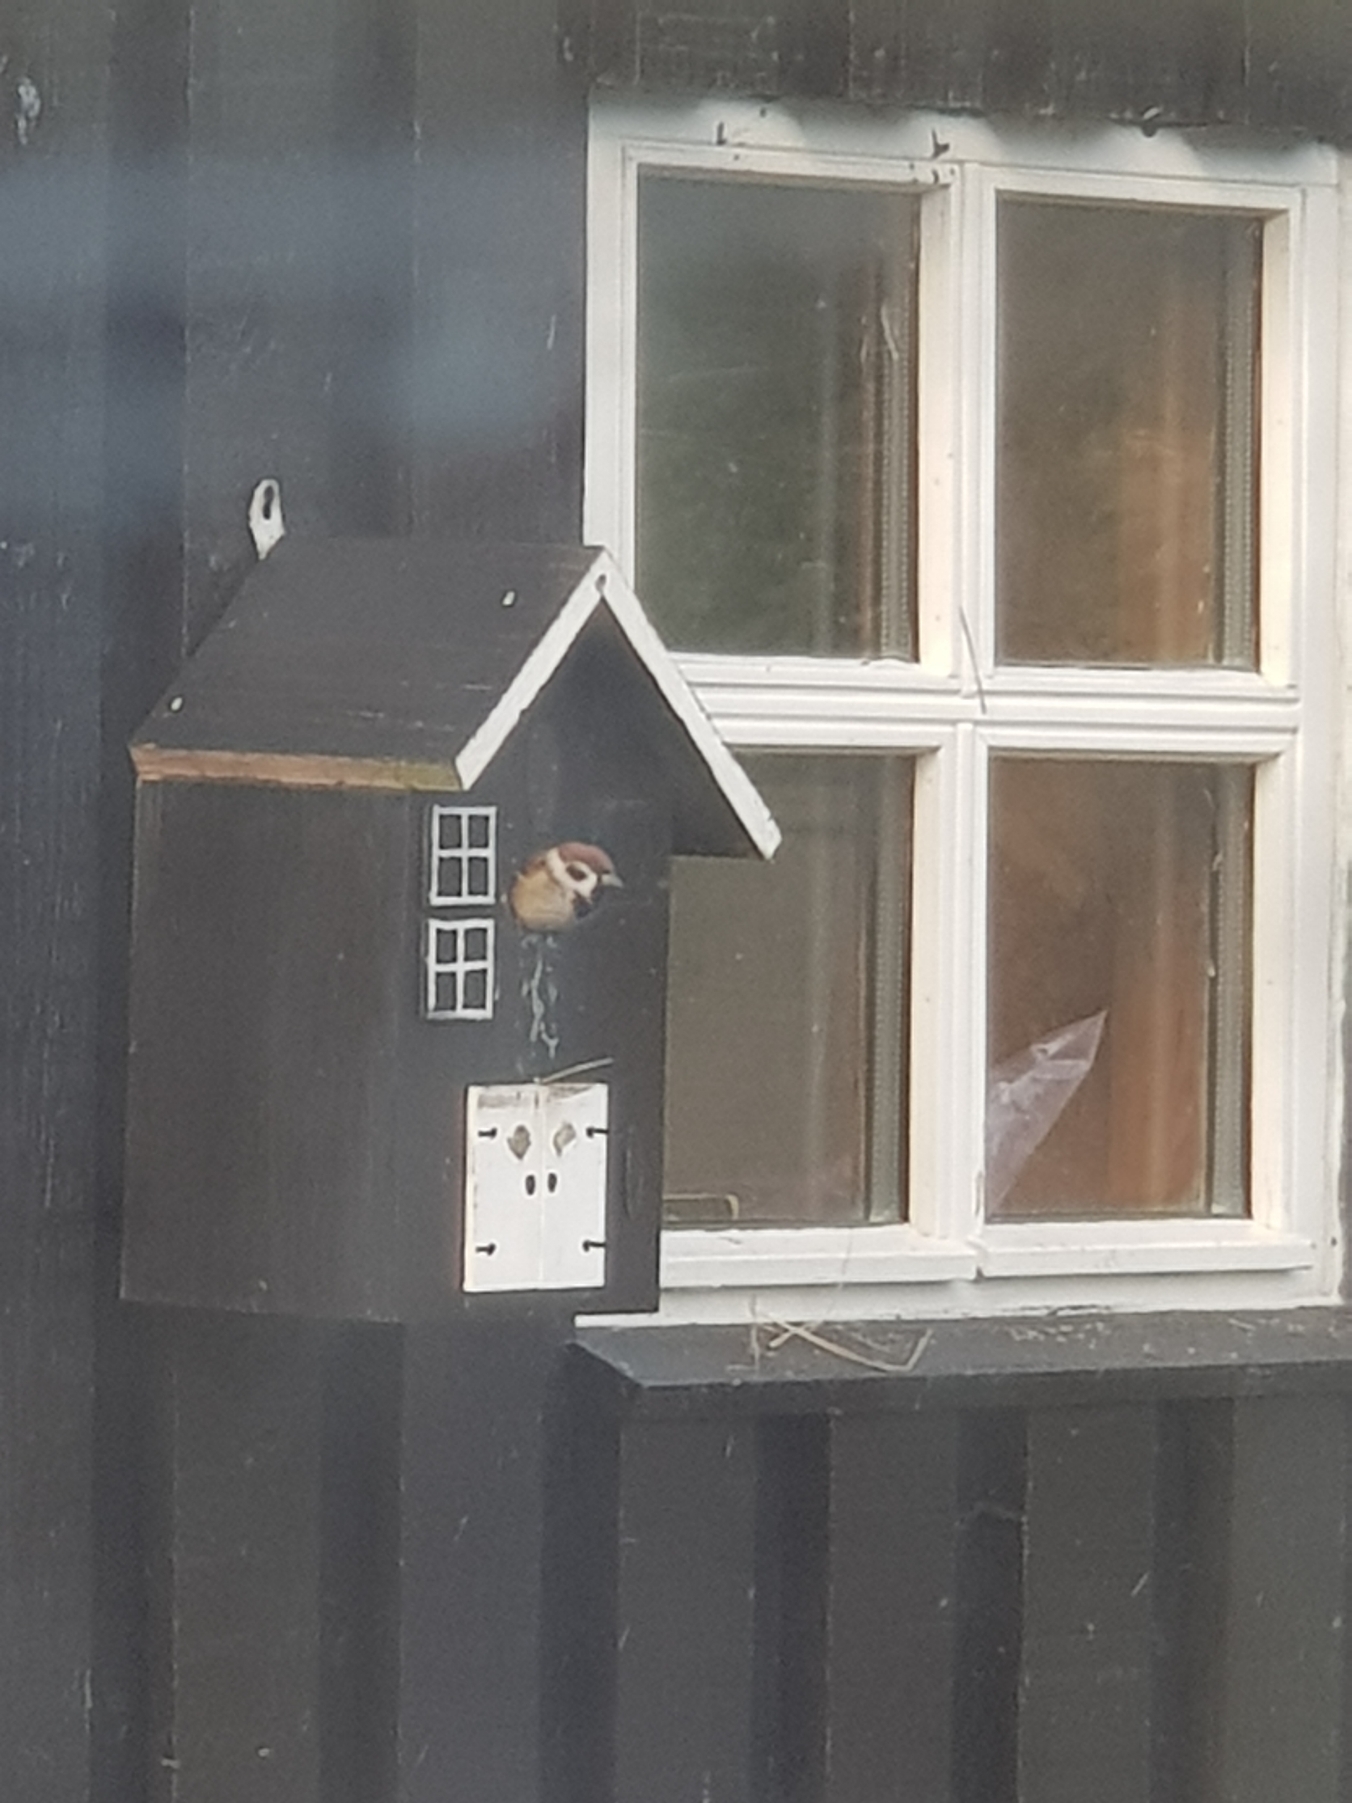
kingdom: Animalia
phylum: Chordata
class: Aves
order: Passeriformes
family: Passeridae
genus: Passer
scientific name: Passer montanus
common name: Skovspurv
